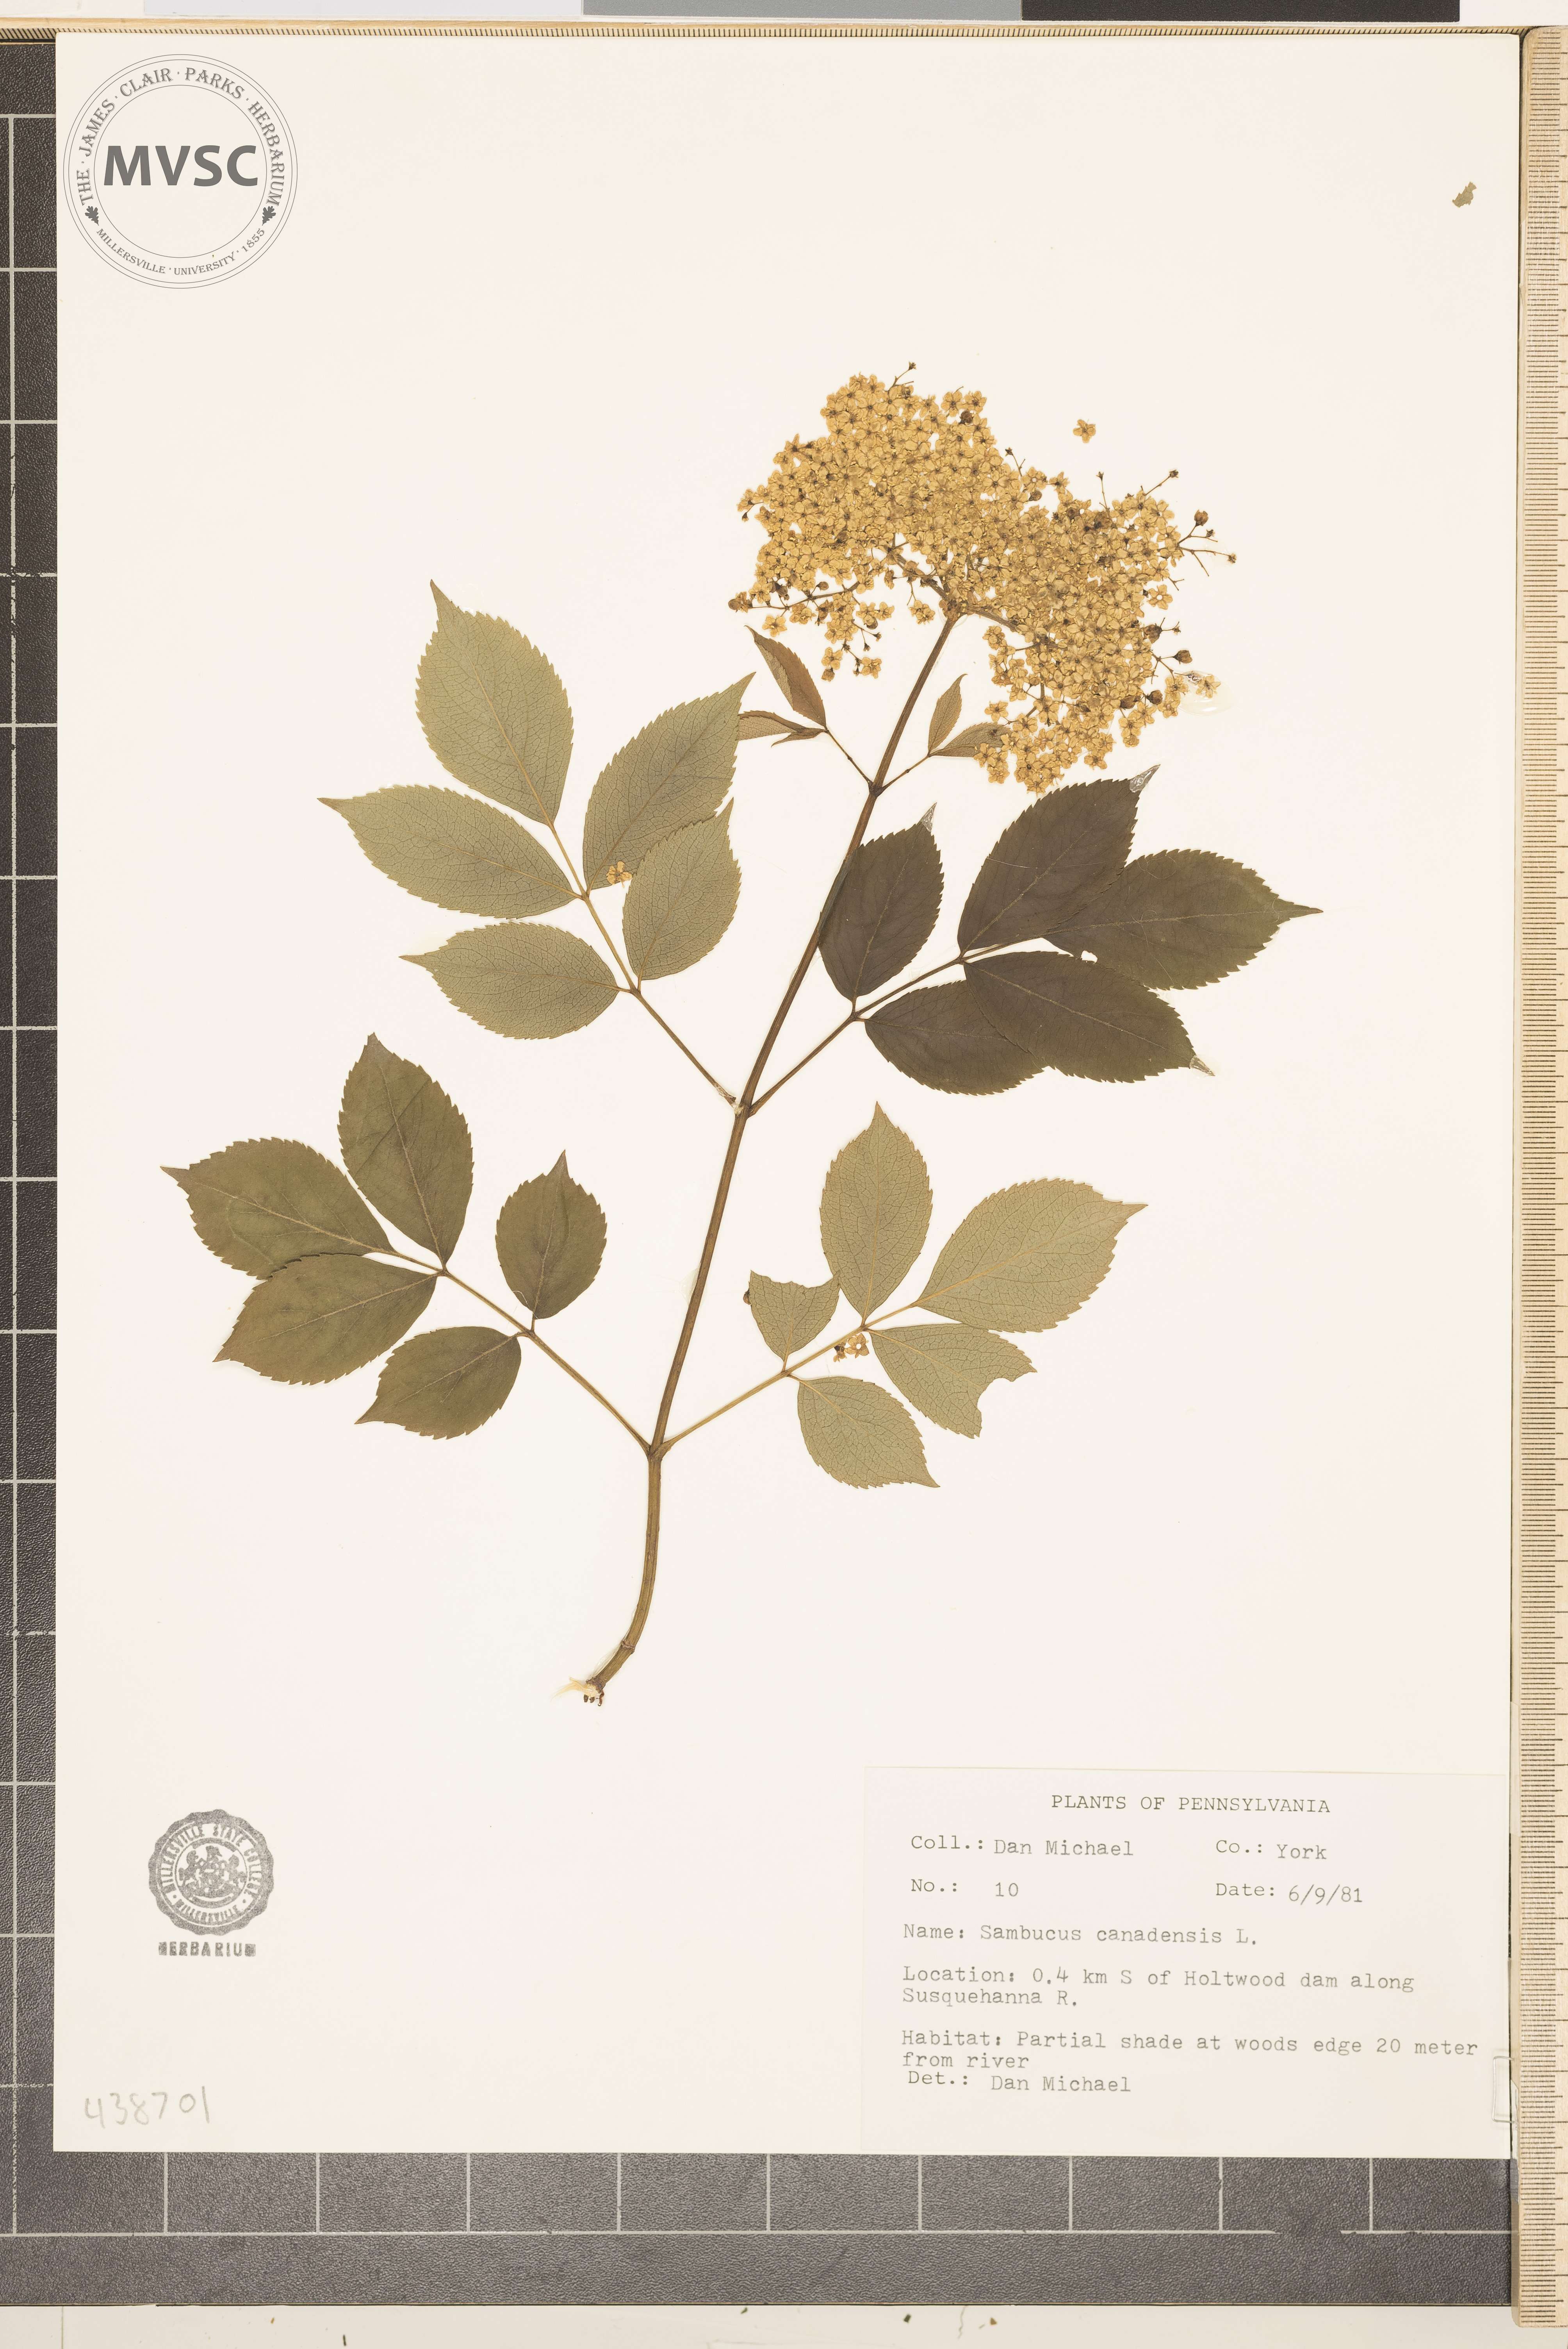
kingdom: Plantae
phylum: Tracheophyta
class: Magnoliopsida
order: Dipsacales
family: Viburnaceae
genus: Sambucus
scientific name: Sambucus canadensis
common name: American elder
